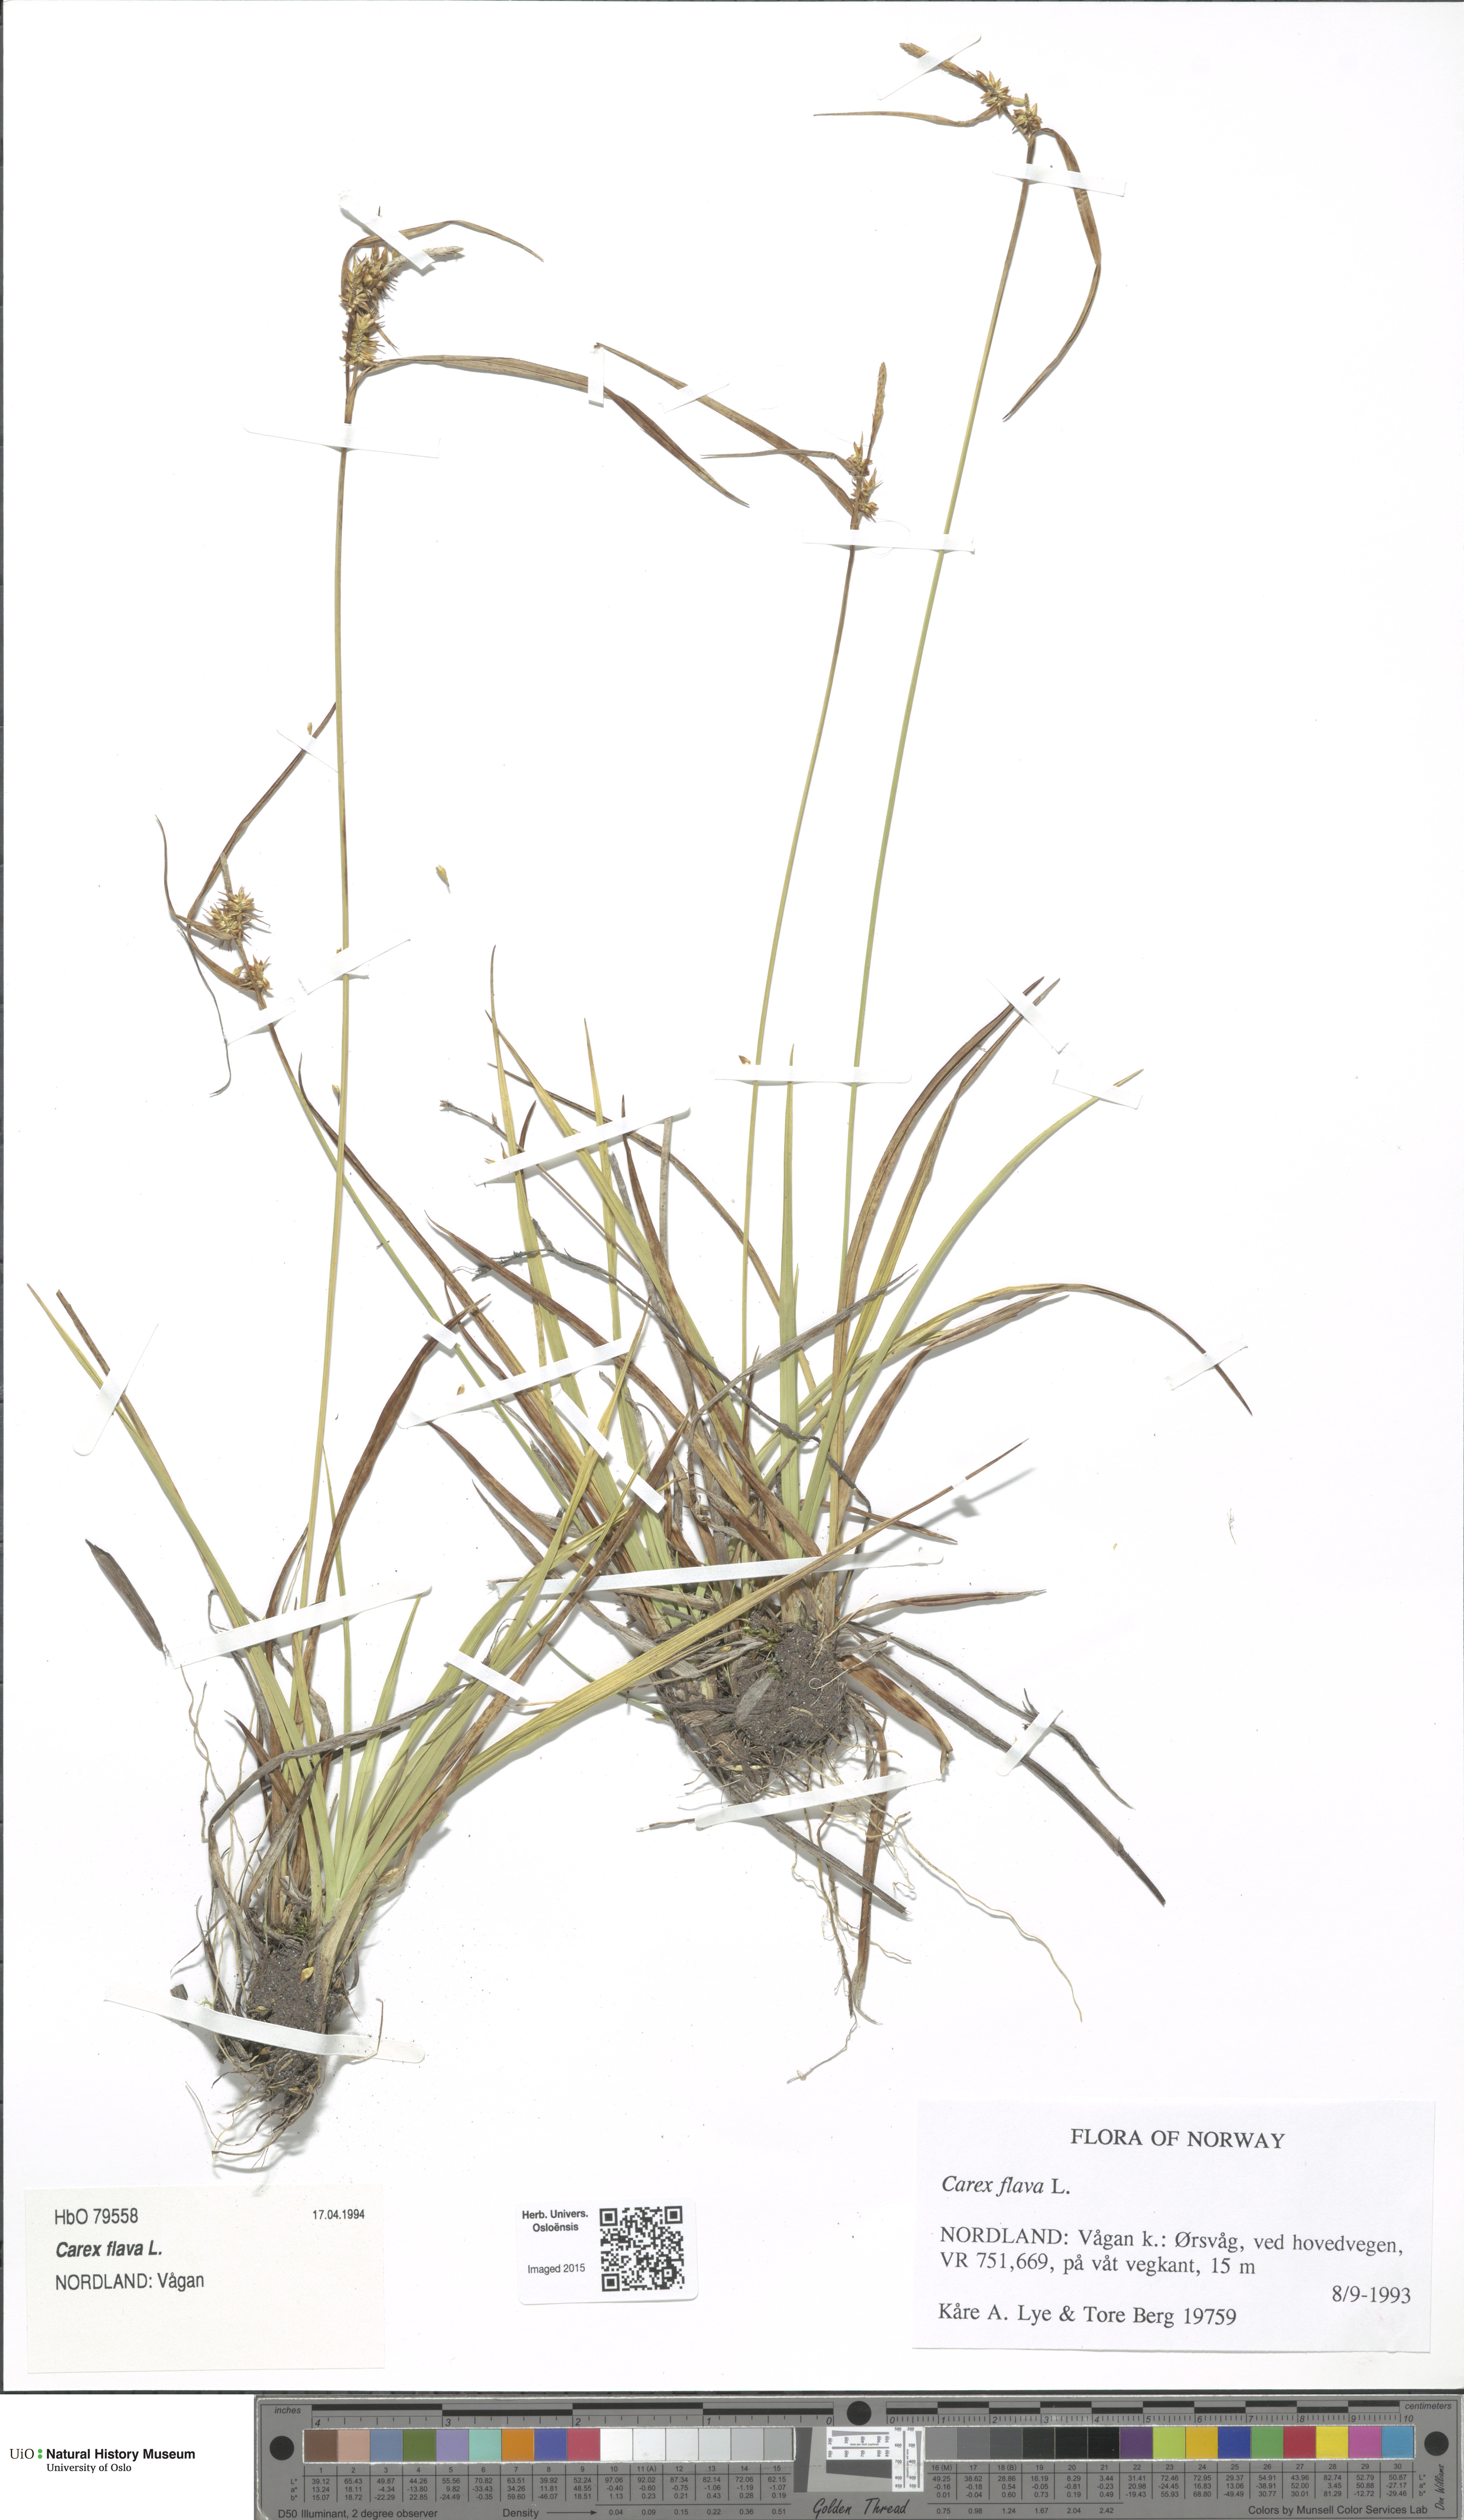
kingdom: Plantae
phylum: Tracheophyta
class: Liliopsida
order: Poales
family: Cyperaceae
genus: Carex
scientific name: Carex flava
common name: Large yellow-sedge
